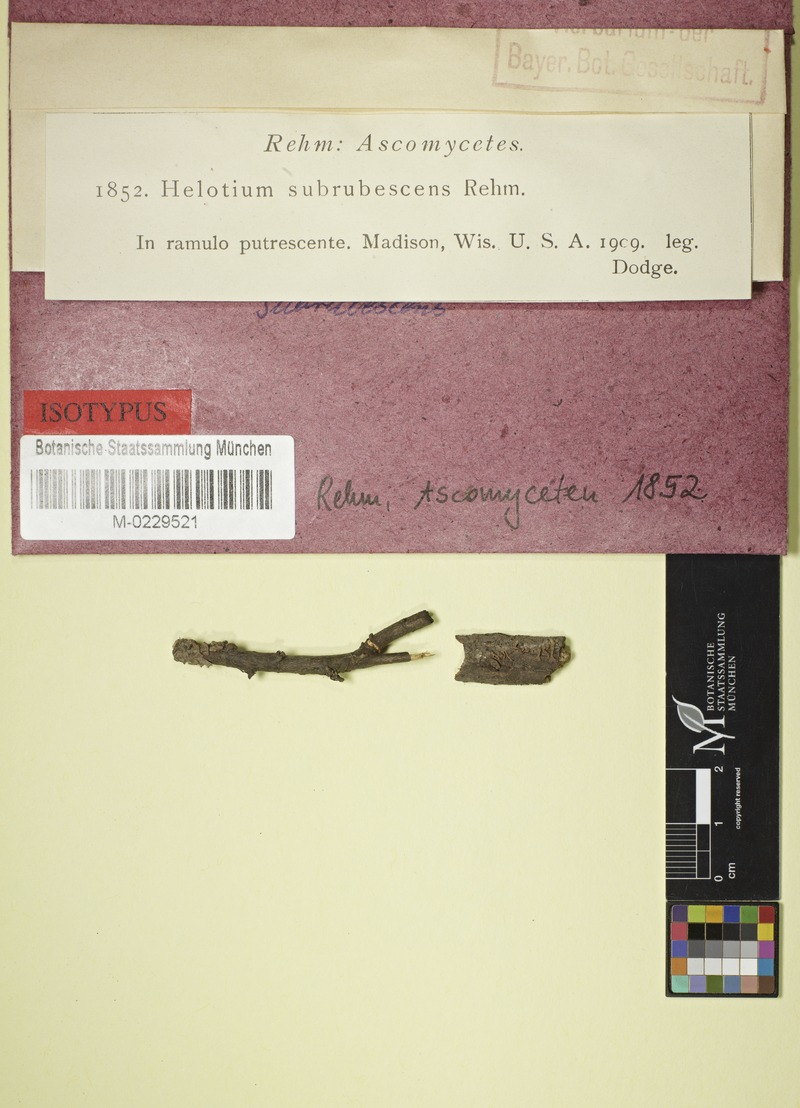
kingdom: Fungi
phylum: Ascomycota
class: Leotiomycetes
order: Helotiales
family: Tricladiaceae
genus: Helotium
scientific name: Helotium
